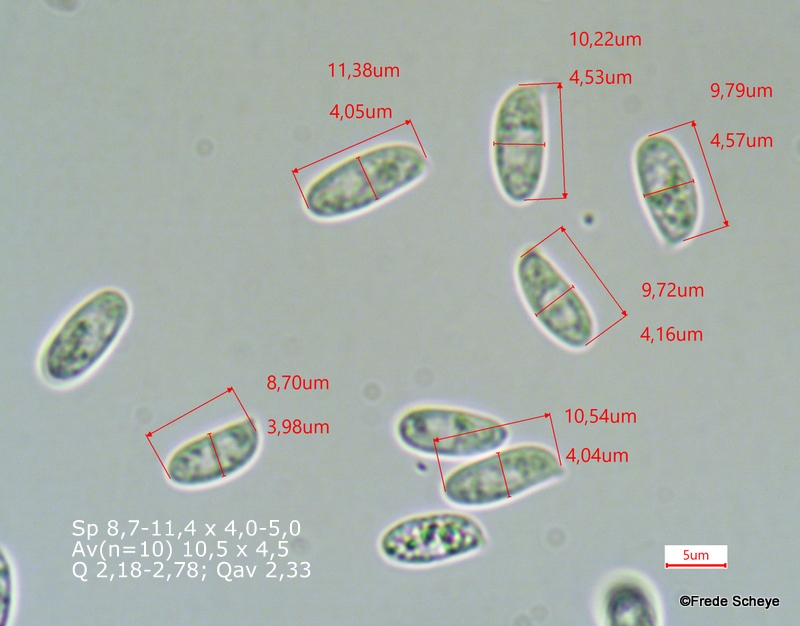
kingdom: Fungi
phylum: Basidiomycota
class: Agaricomycetes
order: Agaricales
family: Physalacriaceae
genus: Flammulina
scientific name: Flammulina elastica
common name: pile-fløjlsfod
